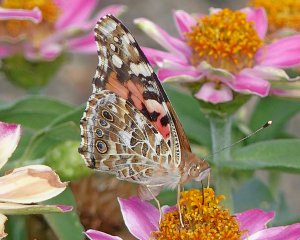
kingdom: Animalia
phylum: Arthropoda
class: Insecta
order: Lepidoptera
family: Nymphalidae
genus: Vanessa
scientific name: Vanessa cardui
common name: Painted Lady
